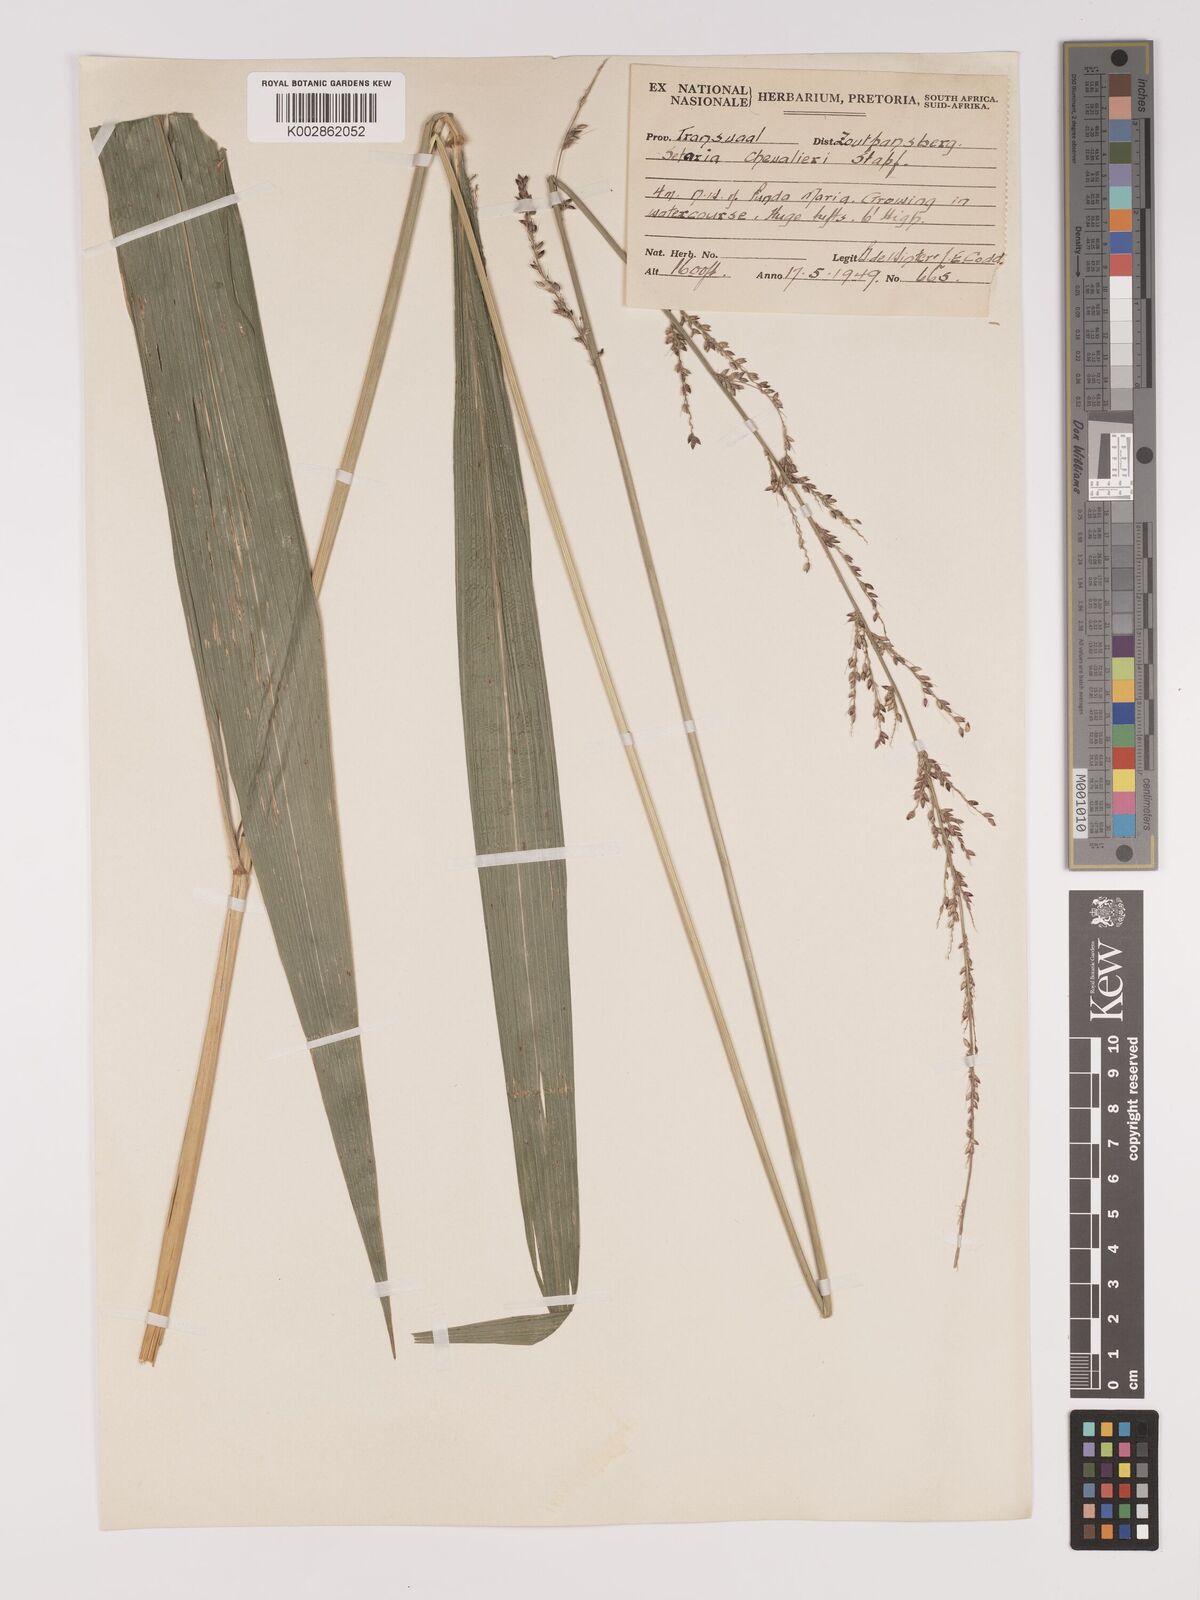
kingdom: Plantae
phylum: Tracheophyta
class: Liliopsida
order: Poales
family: Poaceae
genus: Setaria
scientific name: Setaria megaphylla
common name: Bigleaf bristlegrass
